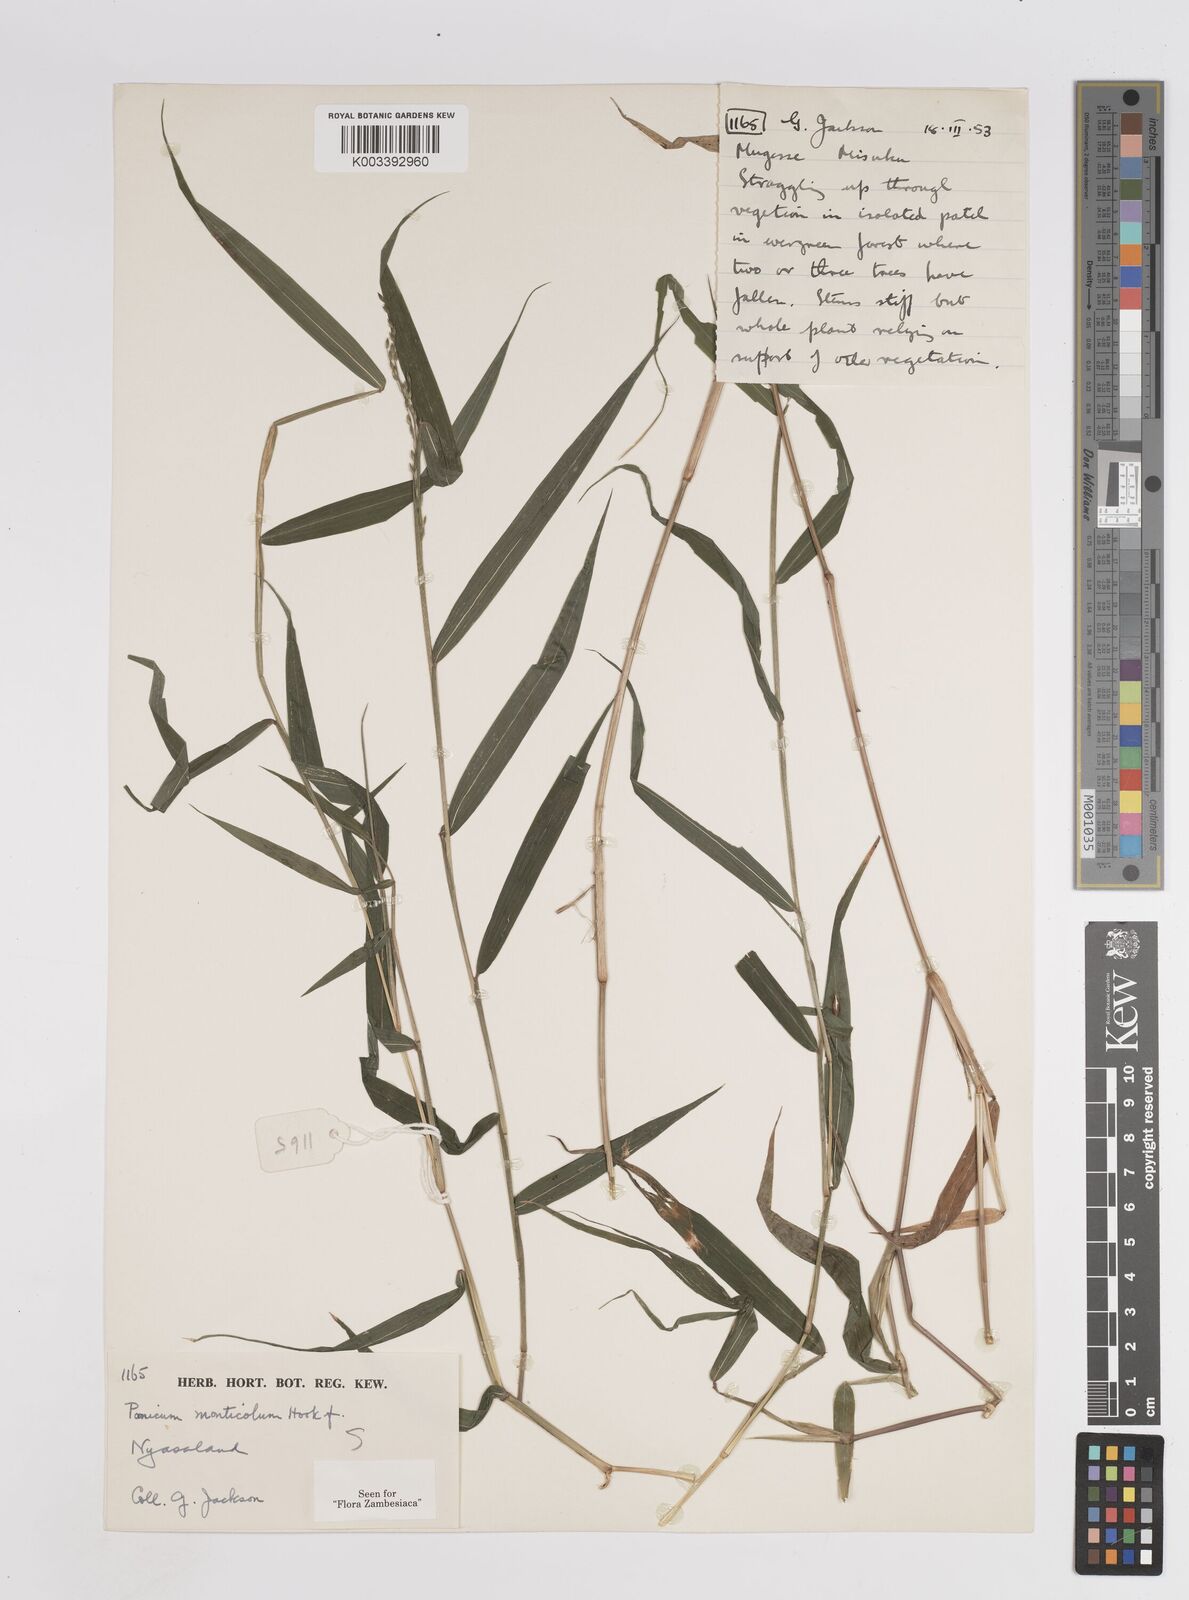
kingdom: Plantae
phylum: Tracheophyta
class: Liliopsida
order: Poales
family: Poaceae
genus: Panicum
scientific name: Panicum monticola
